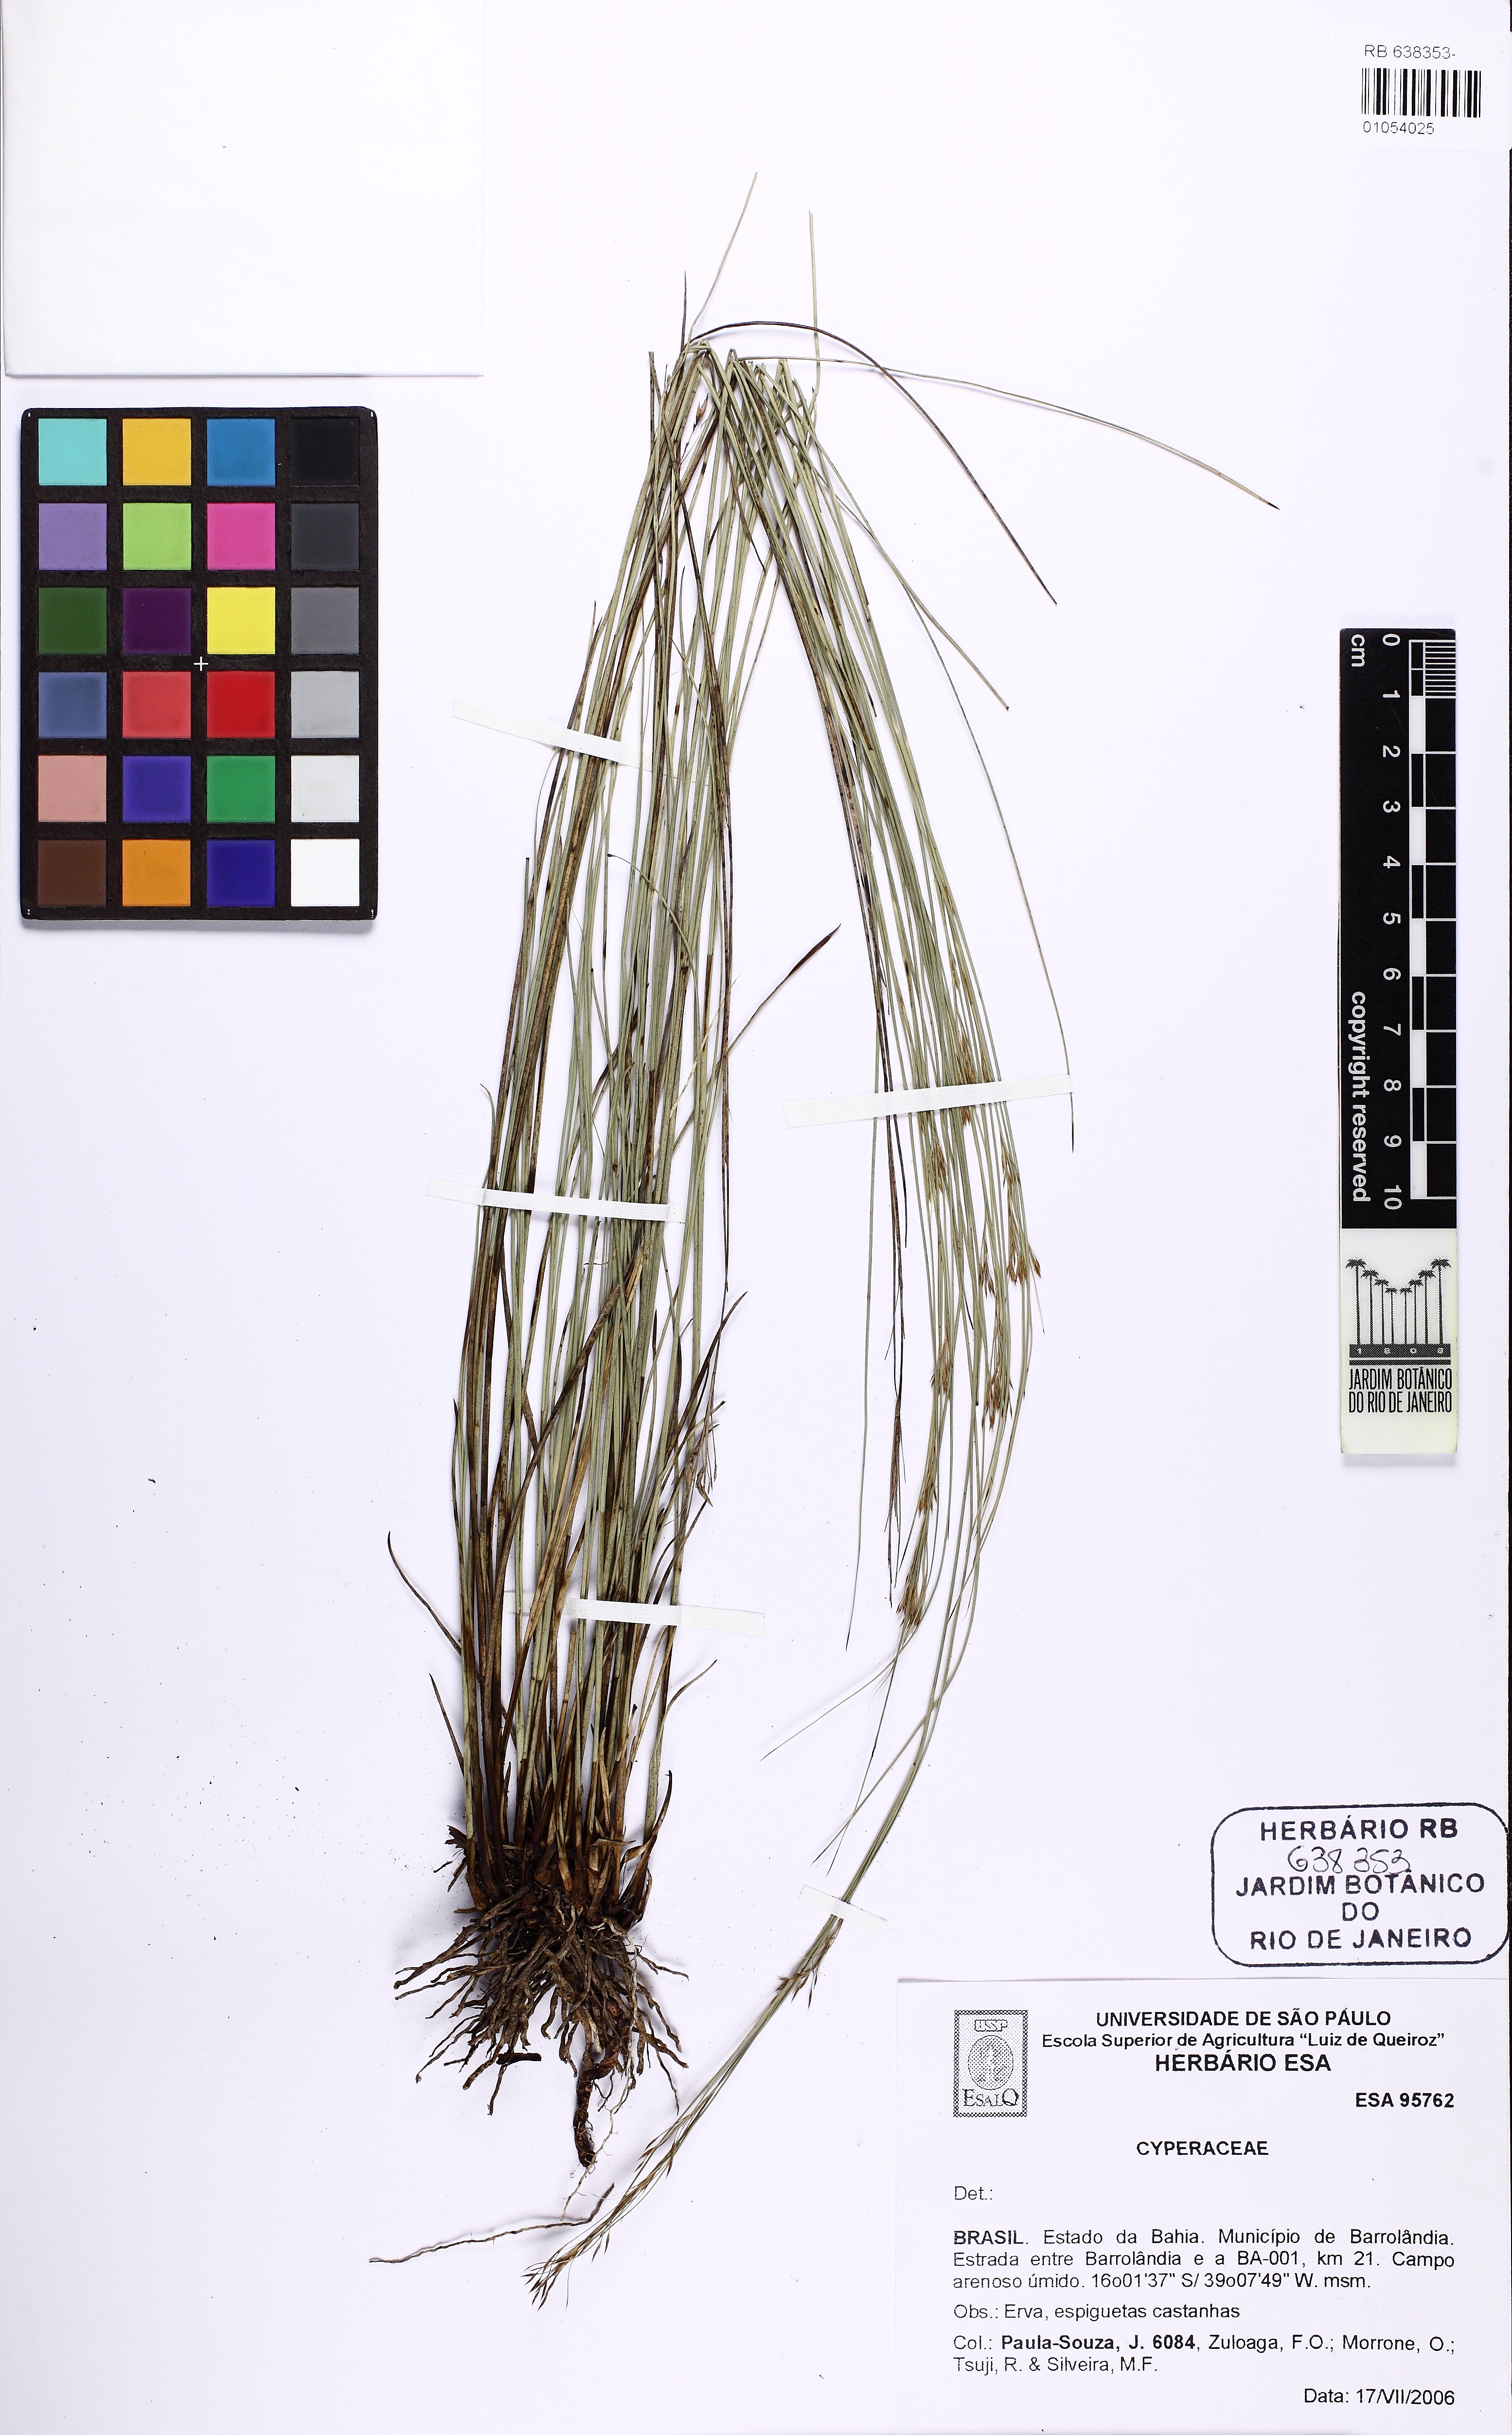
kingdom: Plantae
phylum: Tracheophyta
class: Liliopsida
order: Poales
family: Cyperaceae
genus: Rhynchospora
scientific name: Rhynchospora emaciata
